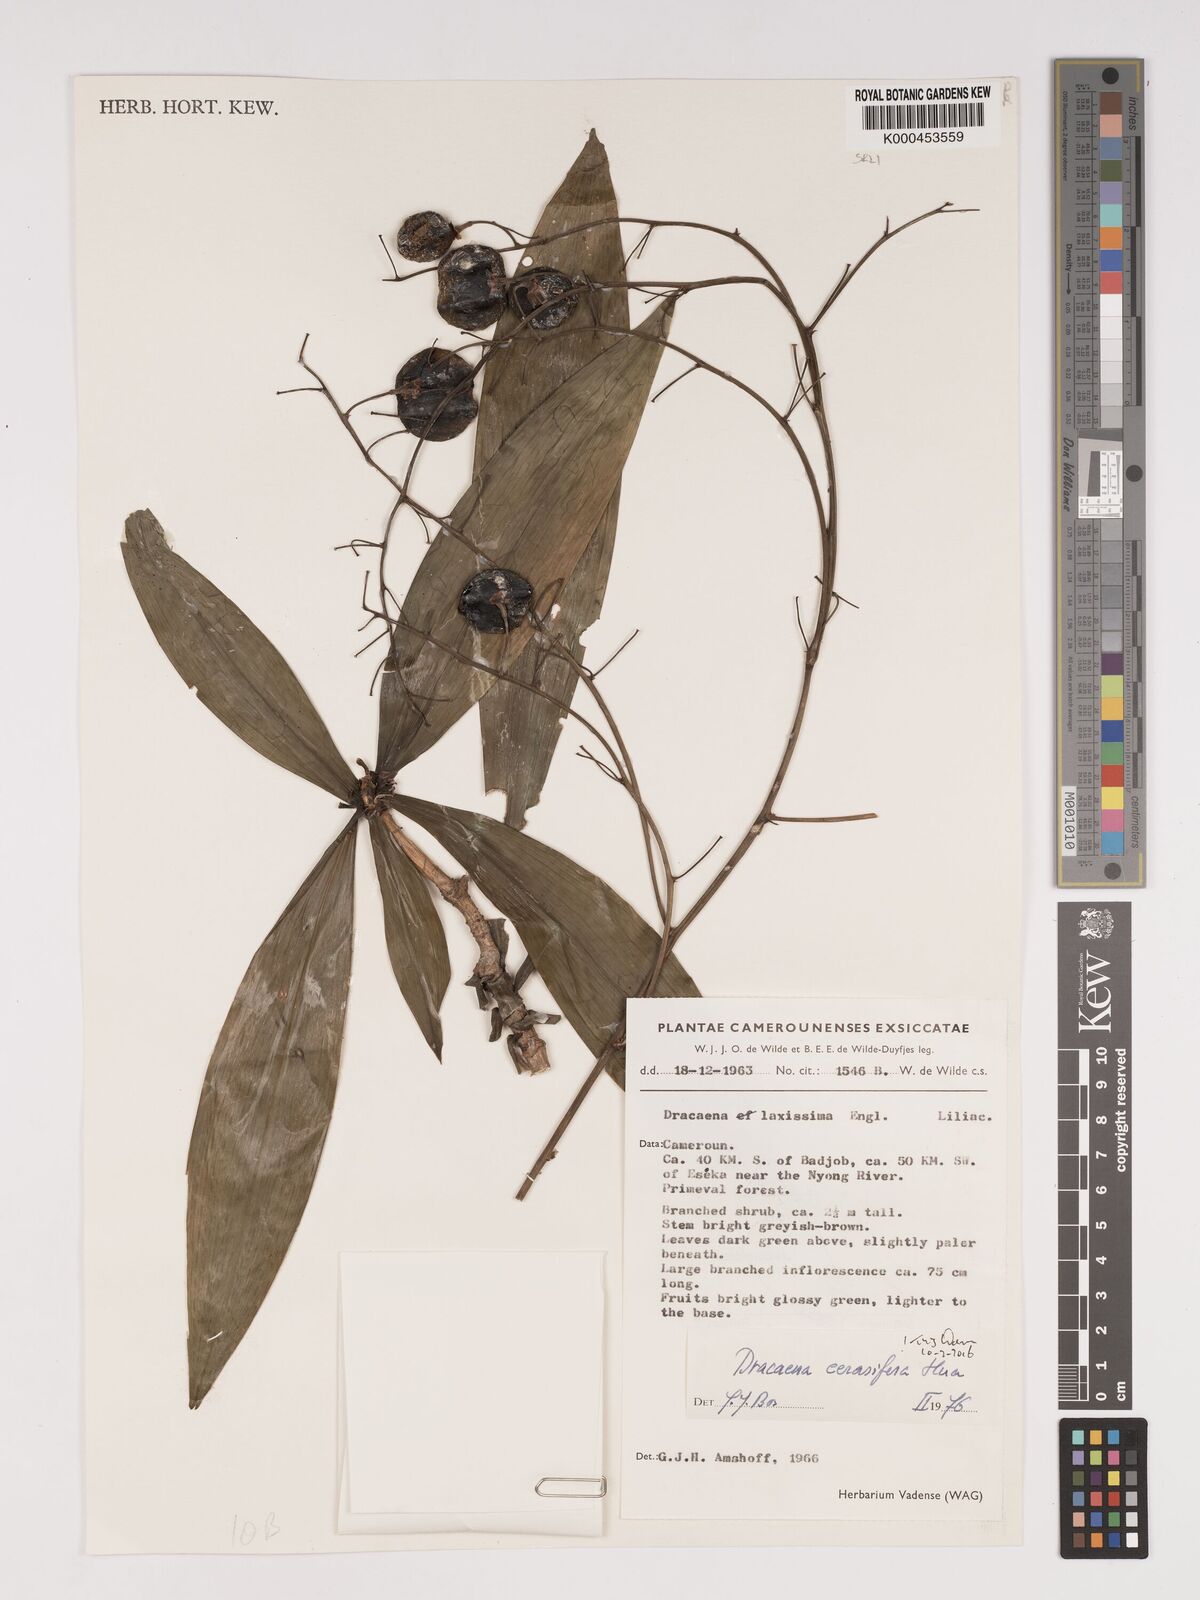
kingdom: Plantae
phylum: Tracheophyta
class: Liliopsida
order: Asparagales
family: Asparagaceae
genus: Dracaena
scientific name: Dracaena cerasifera
